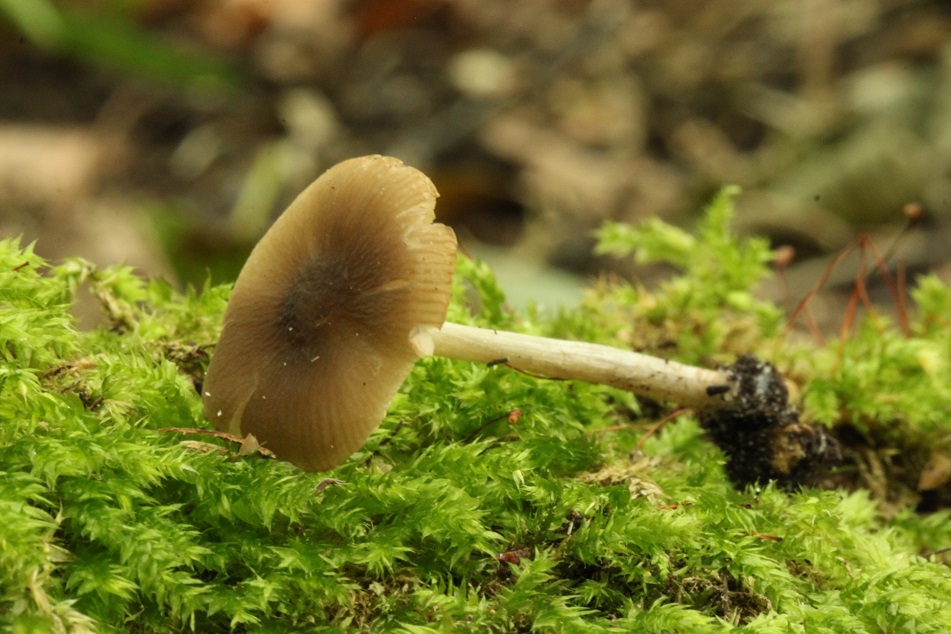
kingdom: Fungi
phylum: Basidiomycota
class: Agaricomycetes
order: Agaricales
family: Pluteaceae
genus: Pluteus
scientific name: Pluteus
